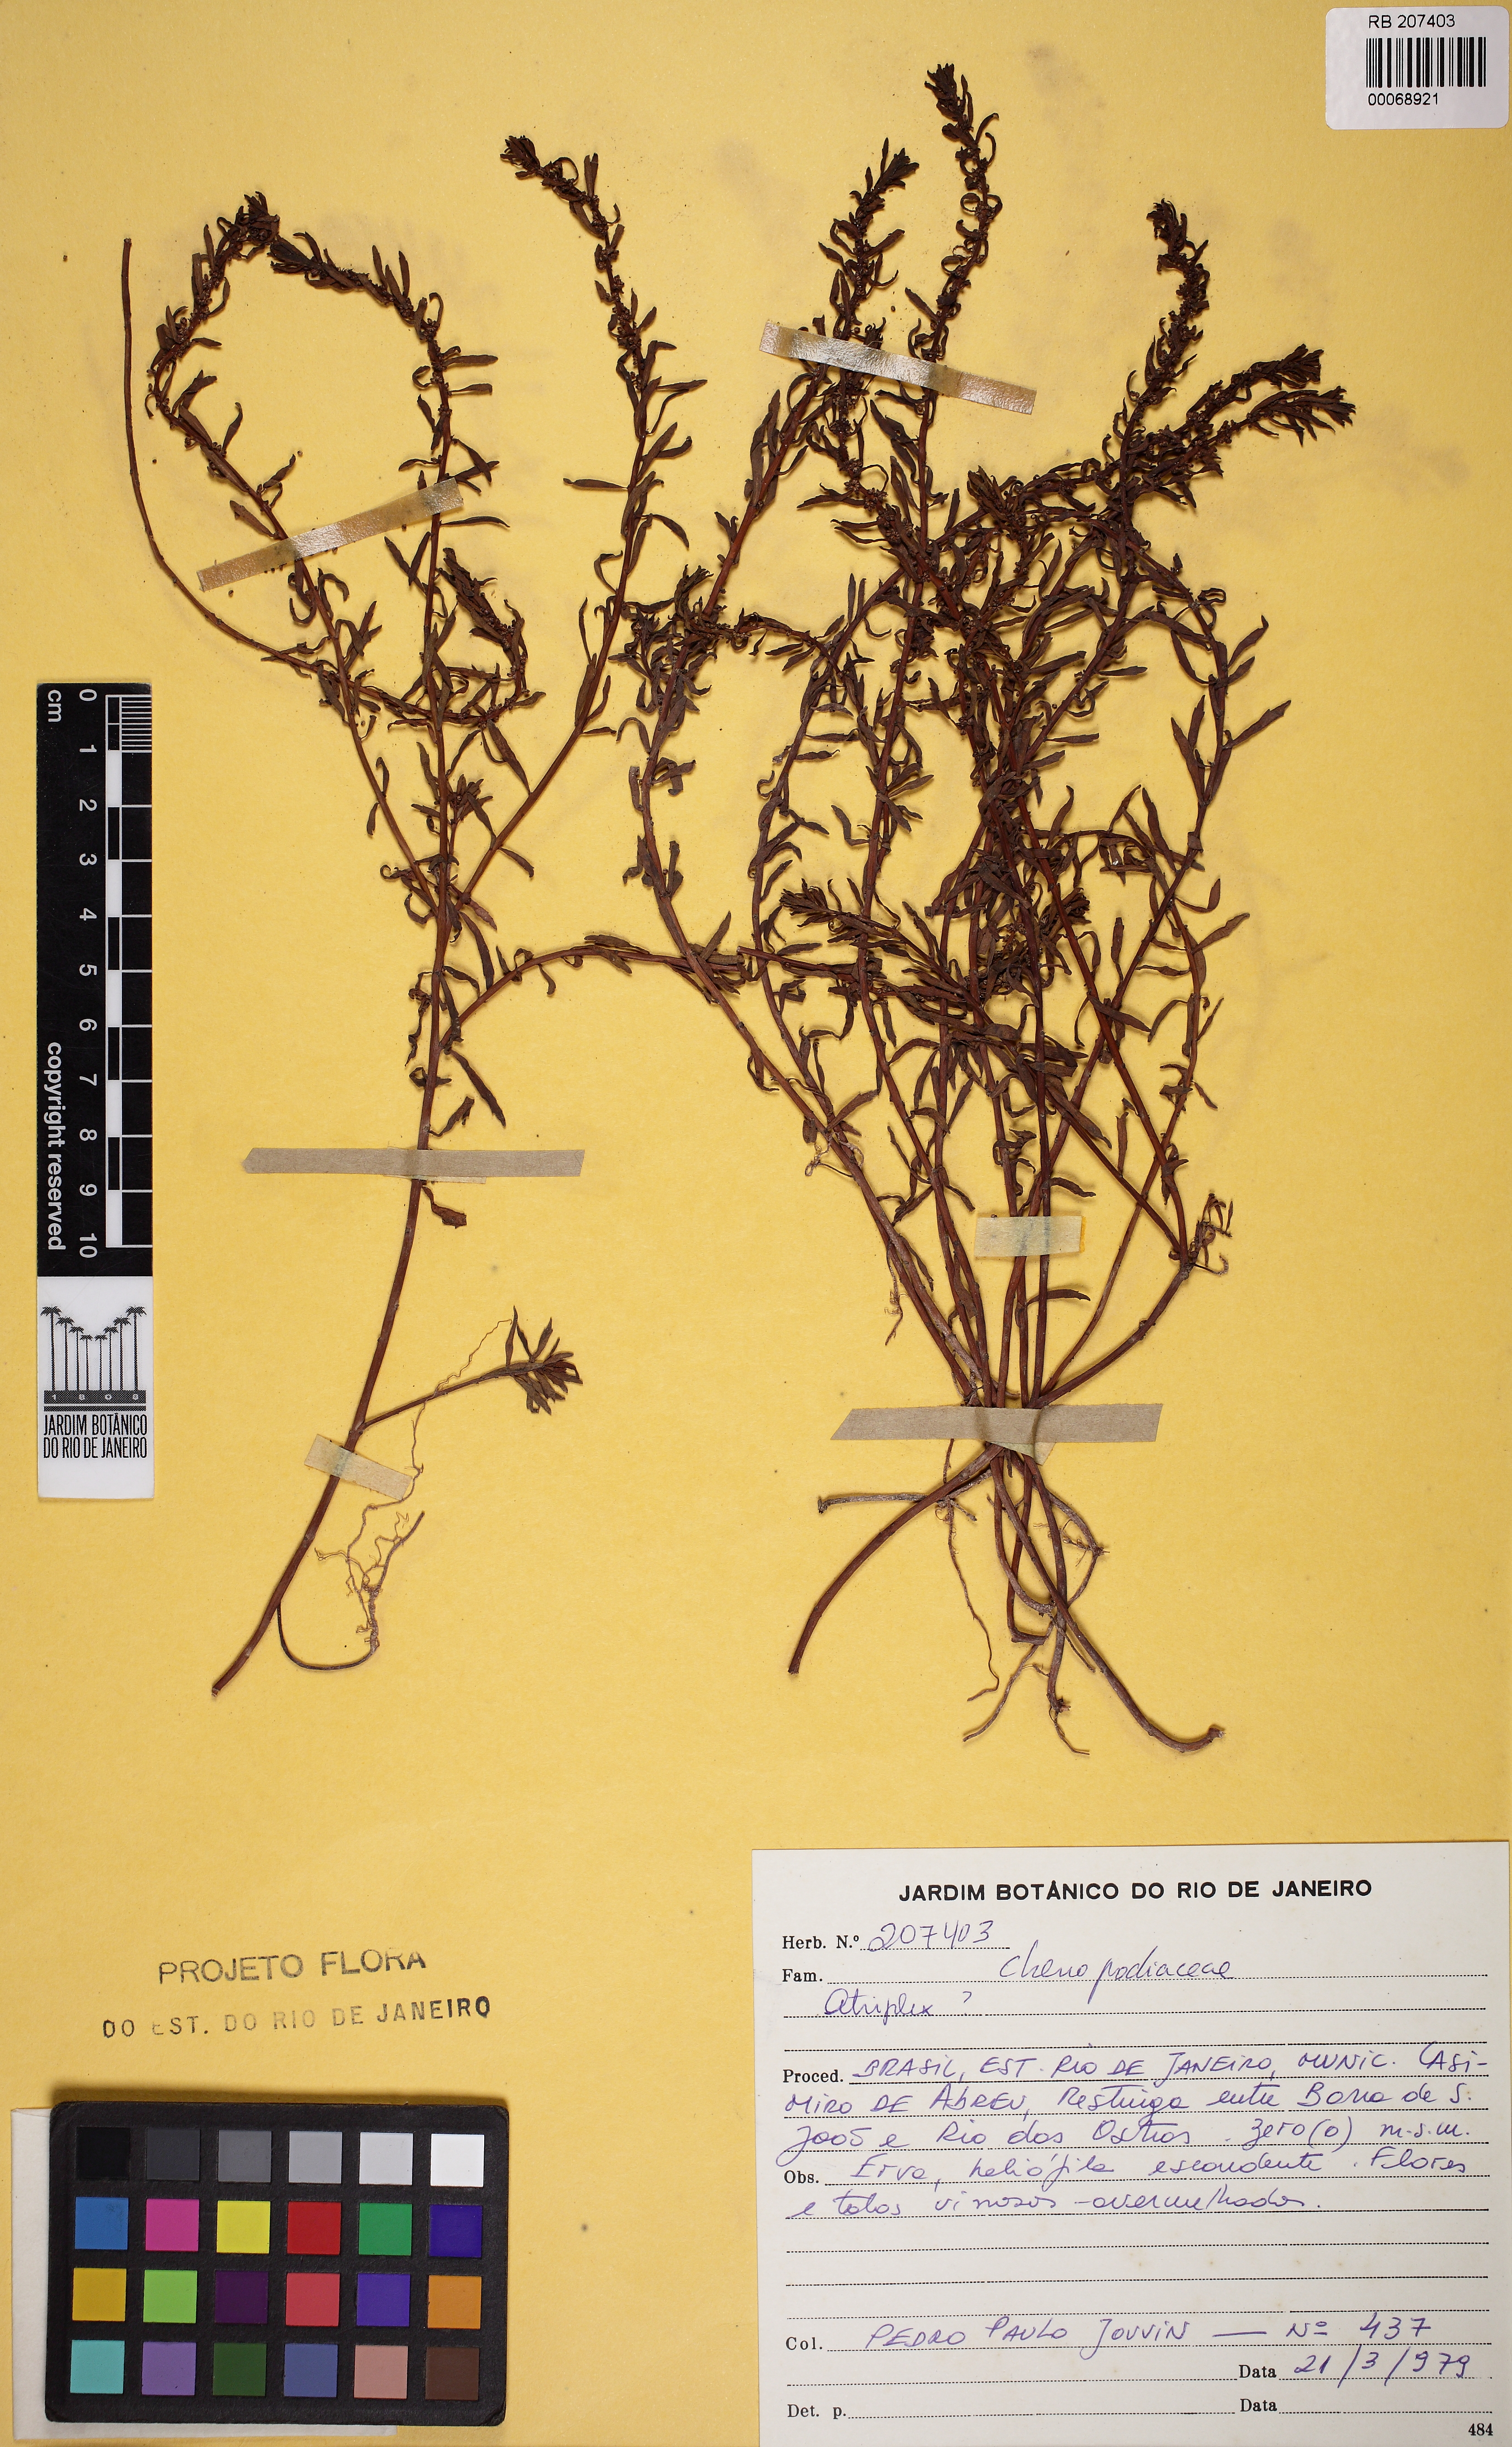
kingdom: Plantae
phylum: Tracheophyta
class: Magnoliopsida
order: Caryophyllales
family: Amaranthaceae
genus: Atriplex
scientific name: Atriplex
